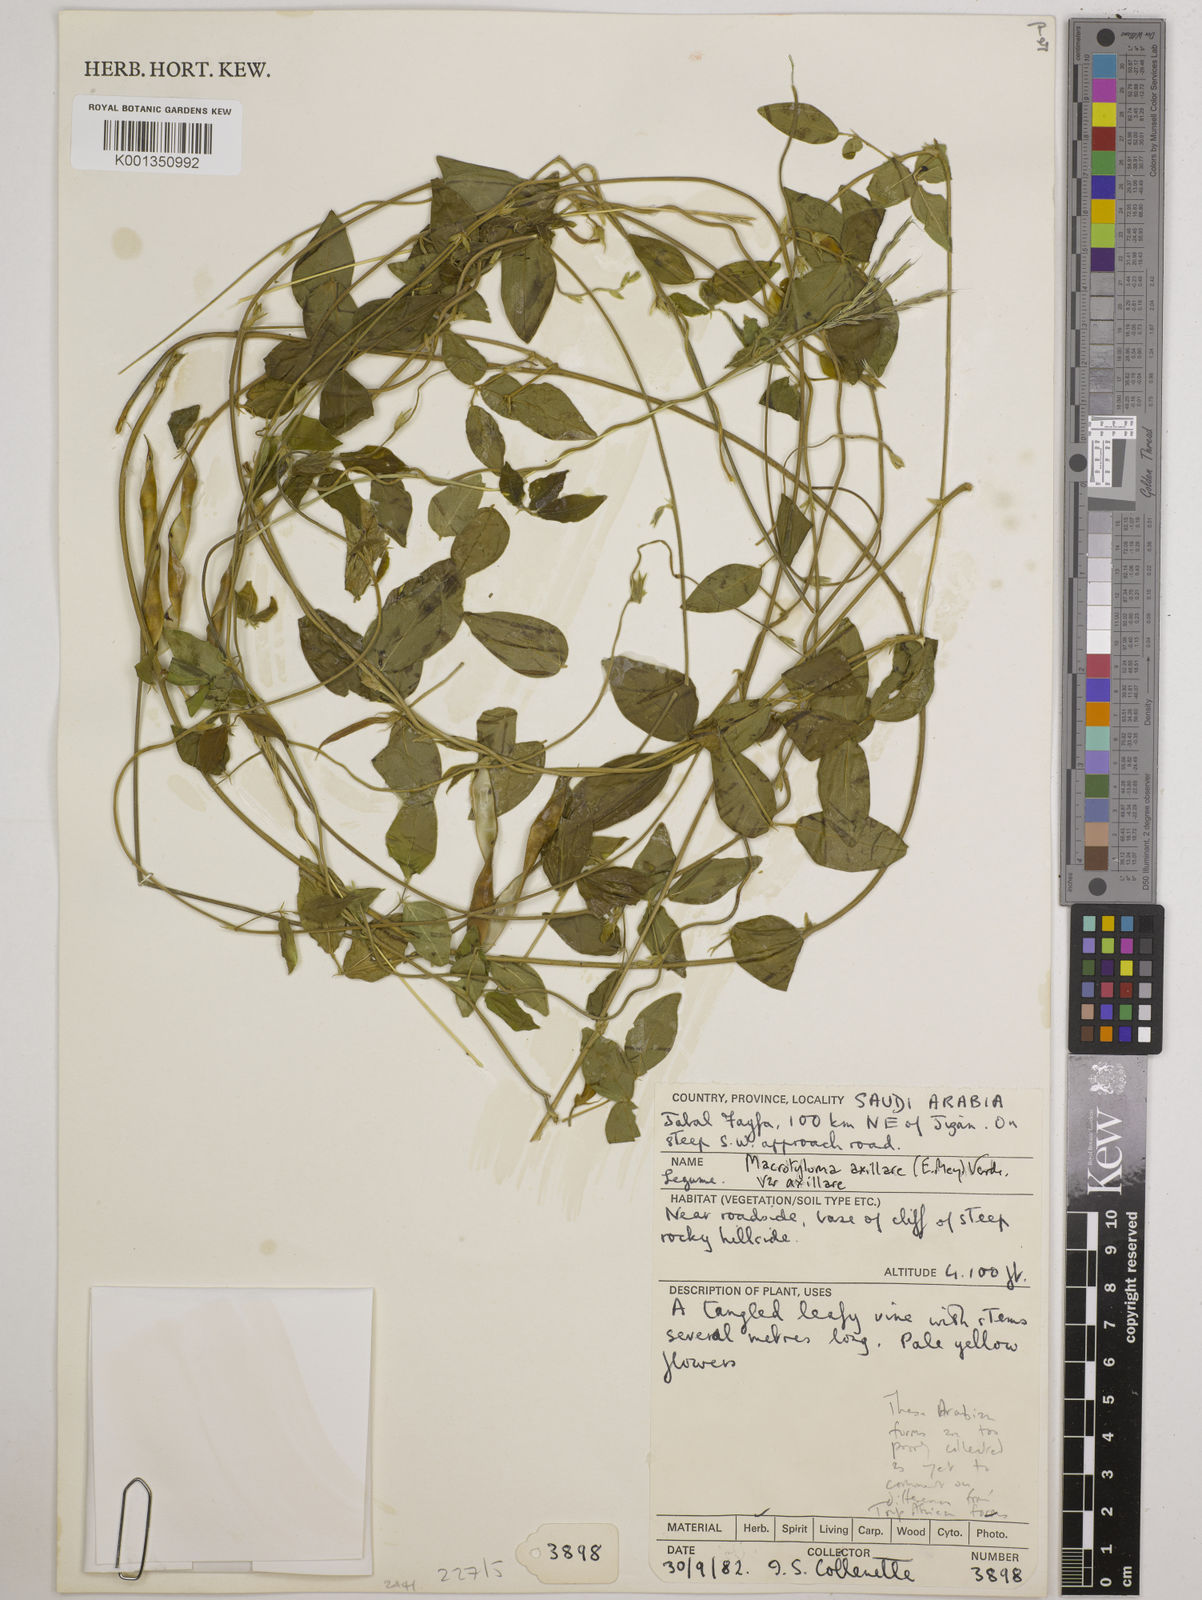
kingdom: Plantae
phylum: Tracheophyta
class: Magnoliopsida
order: Fabales
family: Fabaceae
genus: Macrotyloma
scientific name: Macrotyloma axillare
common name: Perennial horsegram
